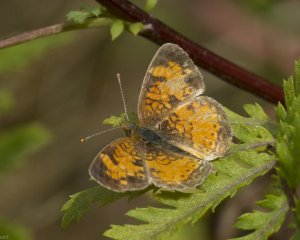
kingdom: Animalia
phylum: Arthropoda
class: Insecta
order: Lepidoptera
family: Nymphalidae
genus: Phyciodes
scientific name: Phyciodes tharos
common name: Northern Crescent
